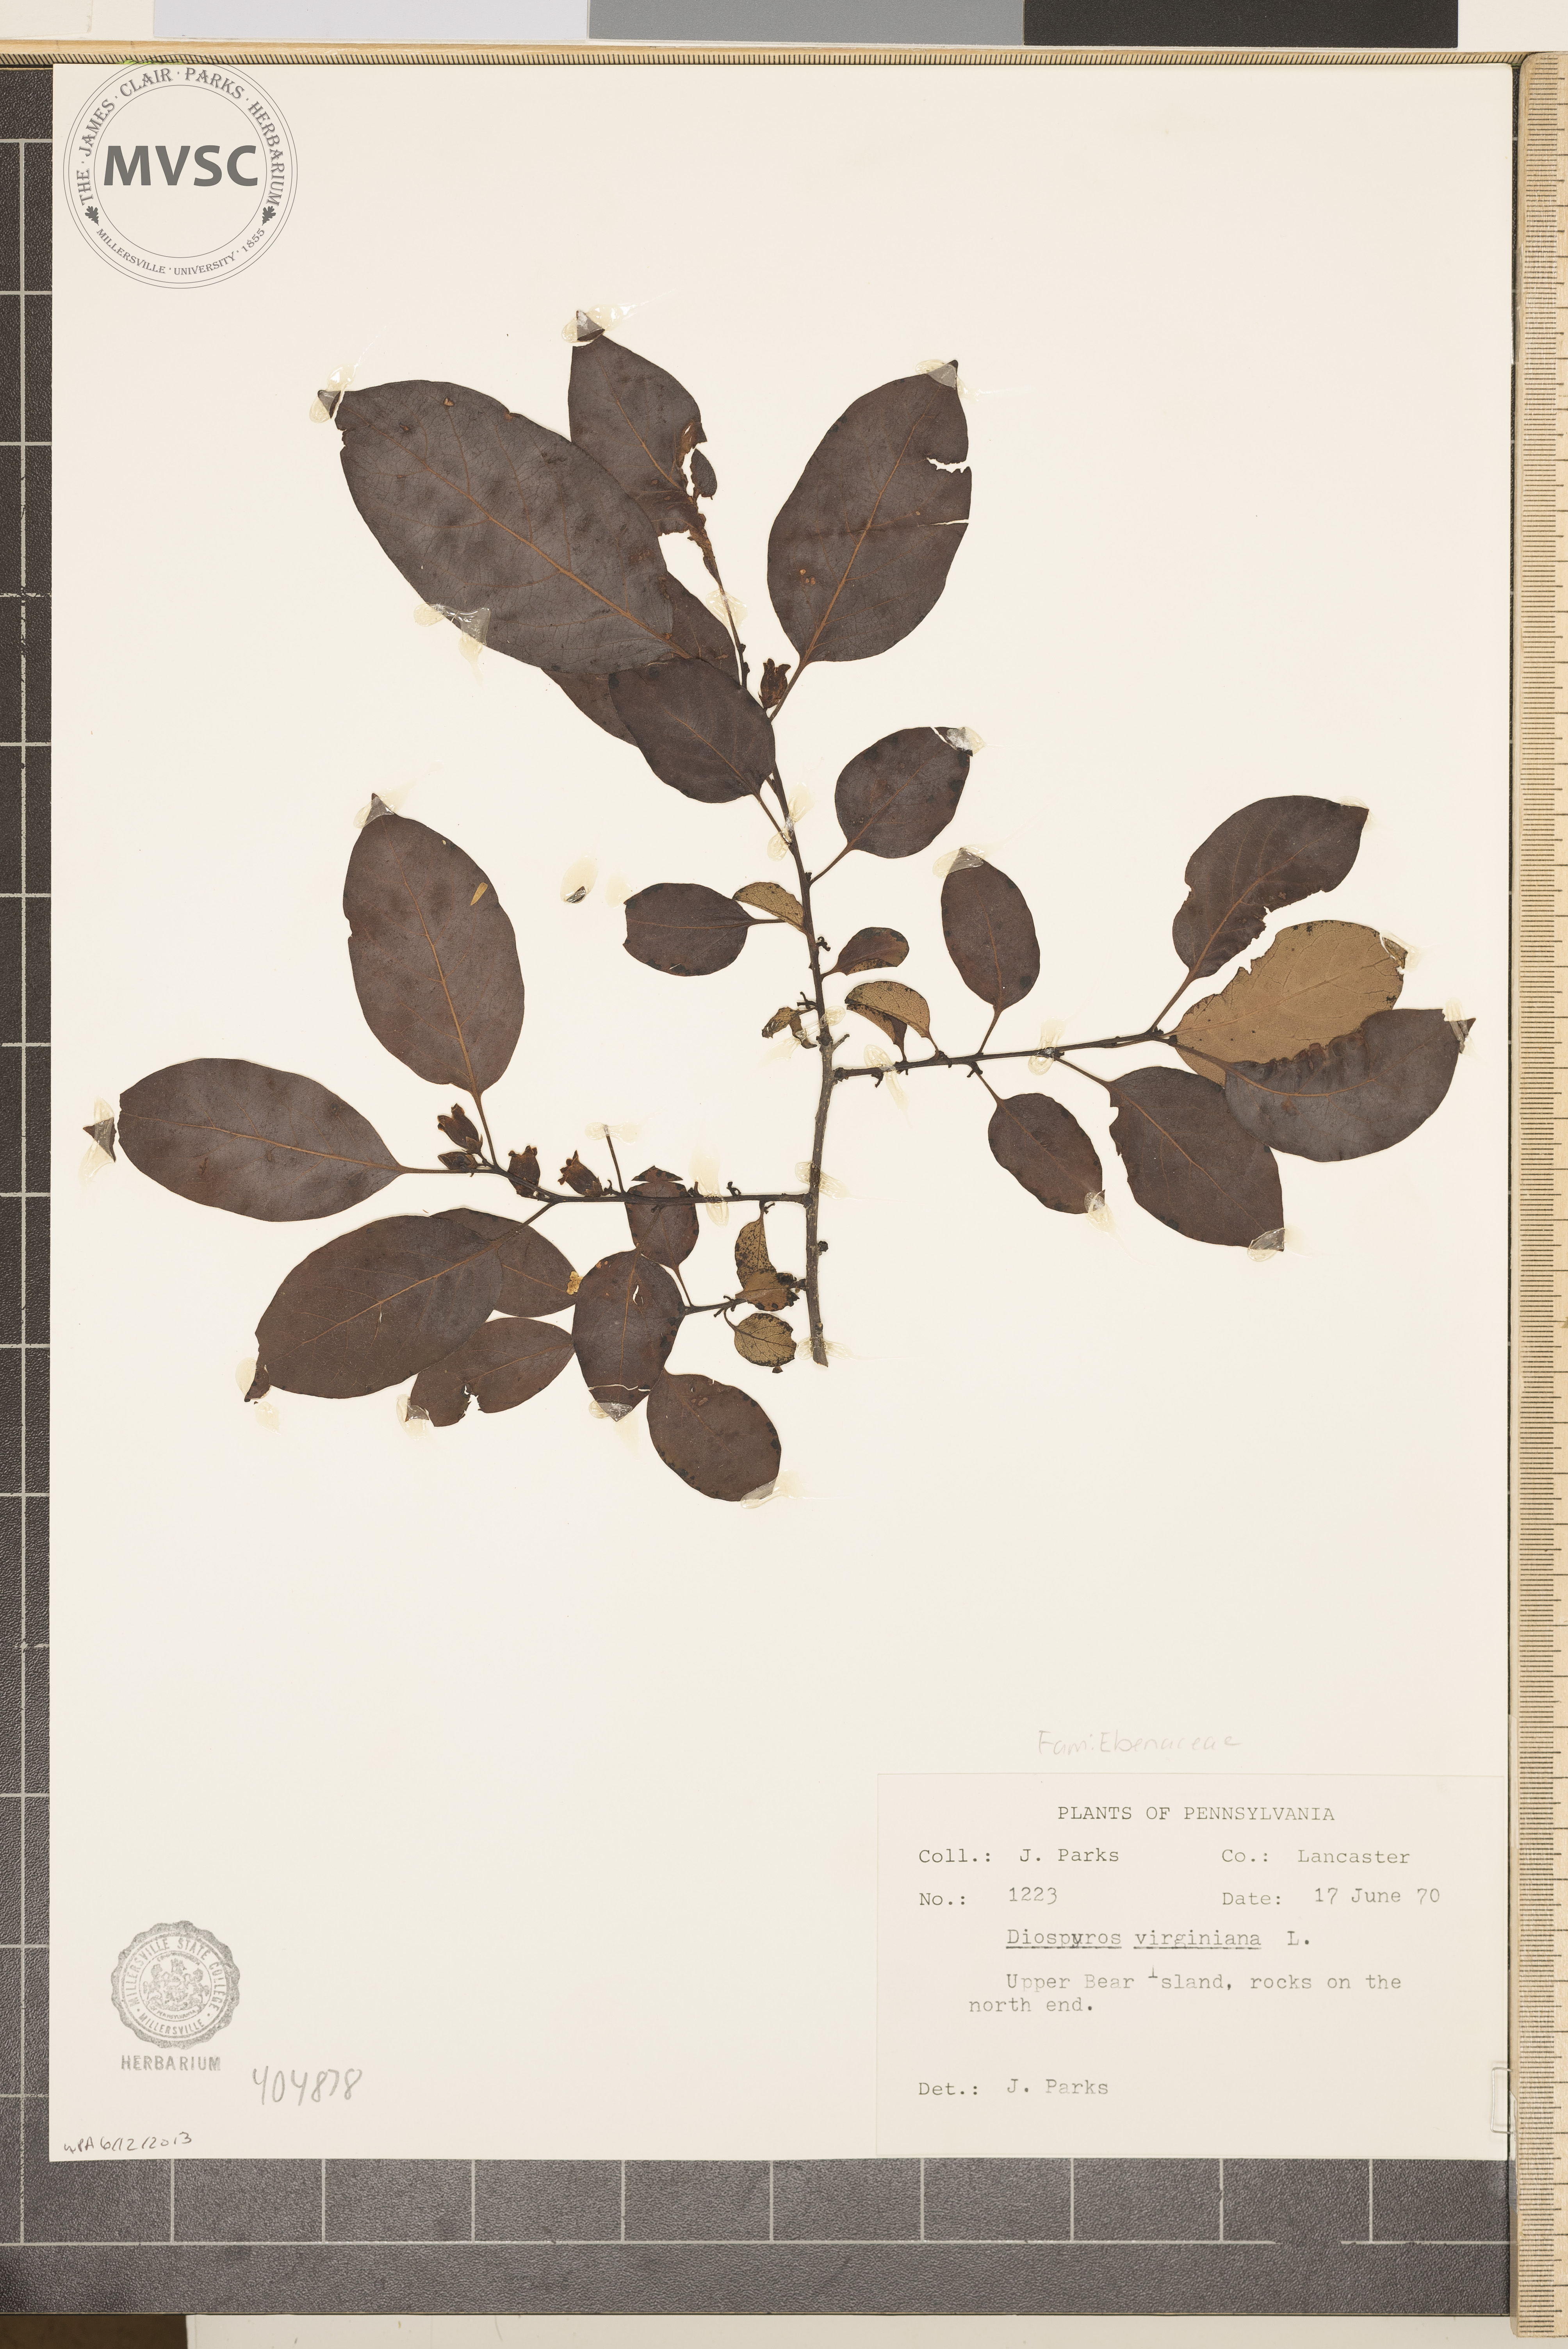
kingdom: Plantae
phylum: Tracheophyta
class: Magnoliopsida
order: Ericales
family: Ebenaceae
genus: Diospyros
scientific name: Diospyros virginiana
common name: Persimmon
